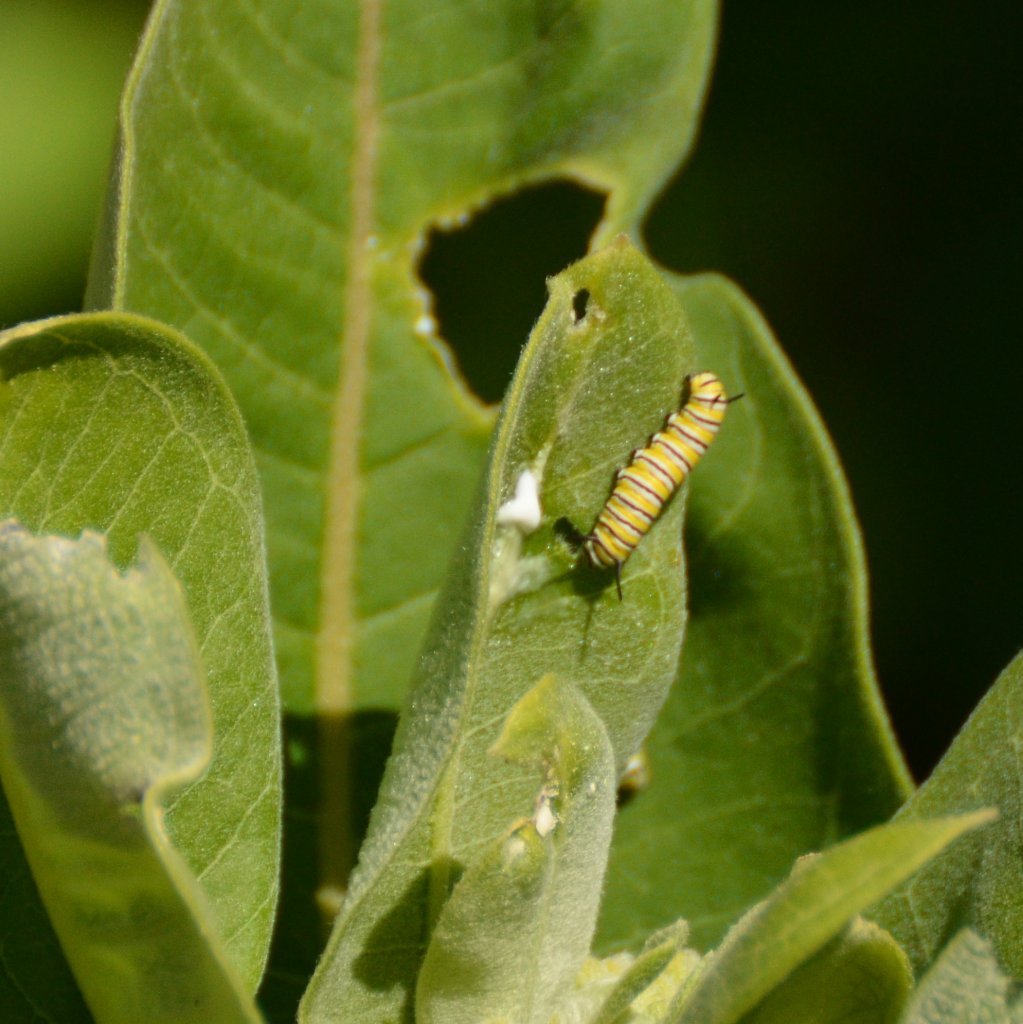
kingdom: Animalia
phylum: Arthropoda
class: Insecta
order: Lepidoptera
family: Nymphalidae
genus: Danaus
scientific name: Danaus plexippus
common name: Monarch
